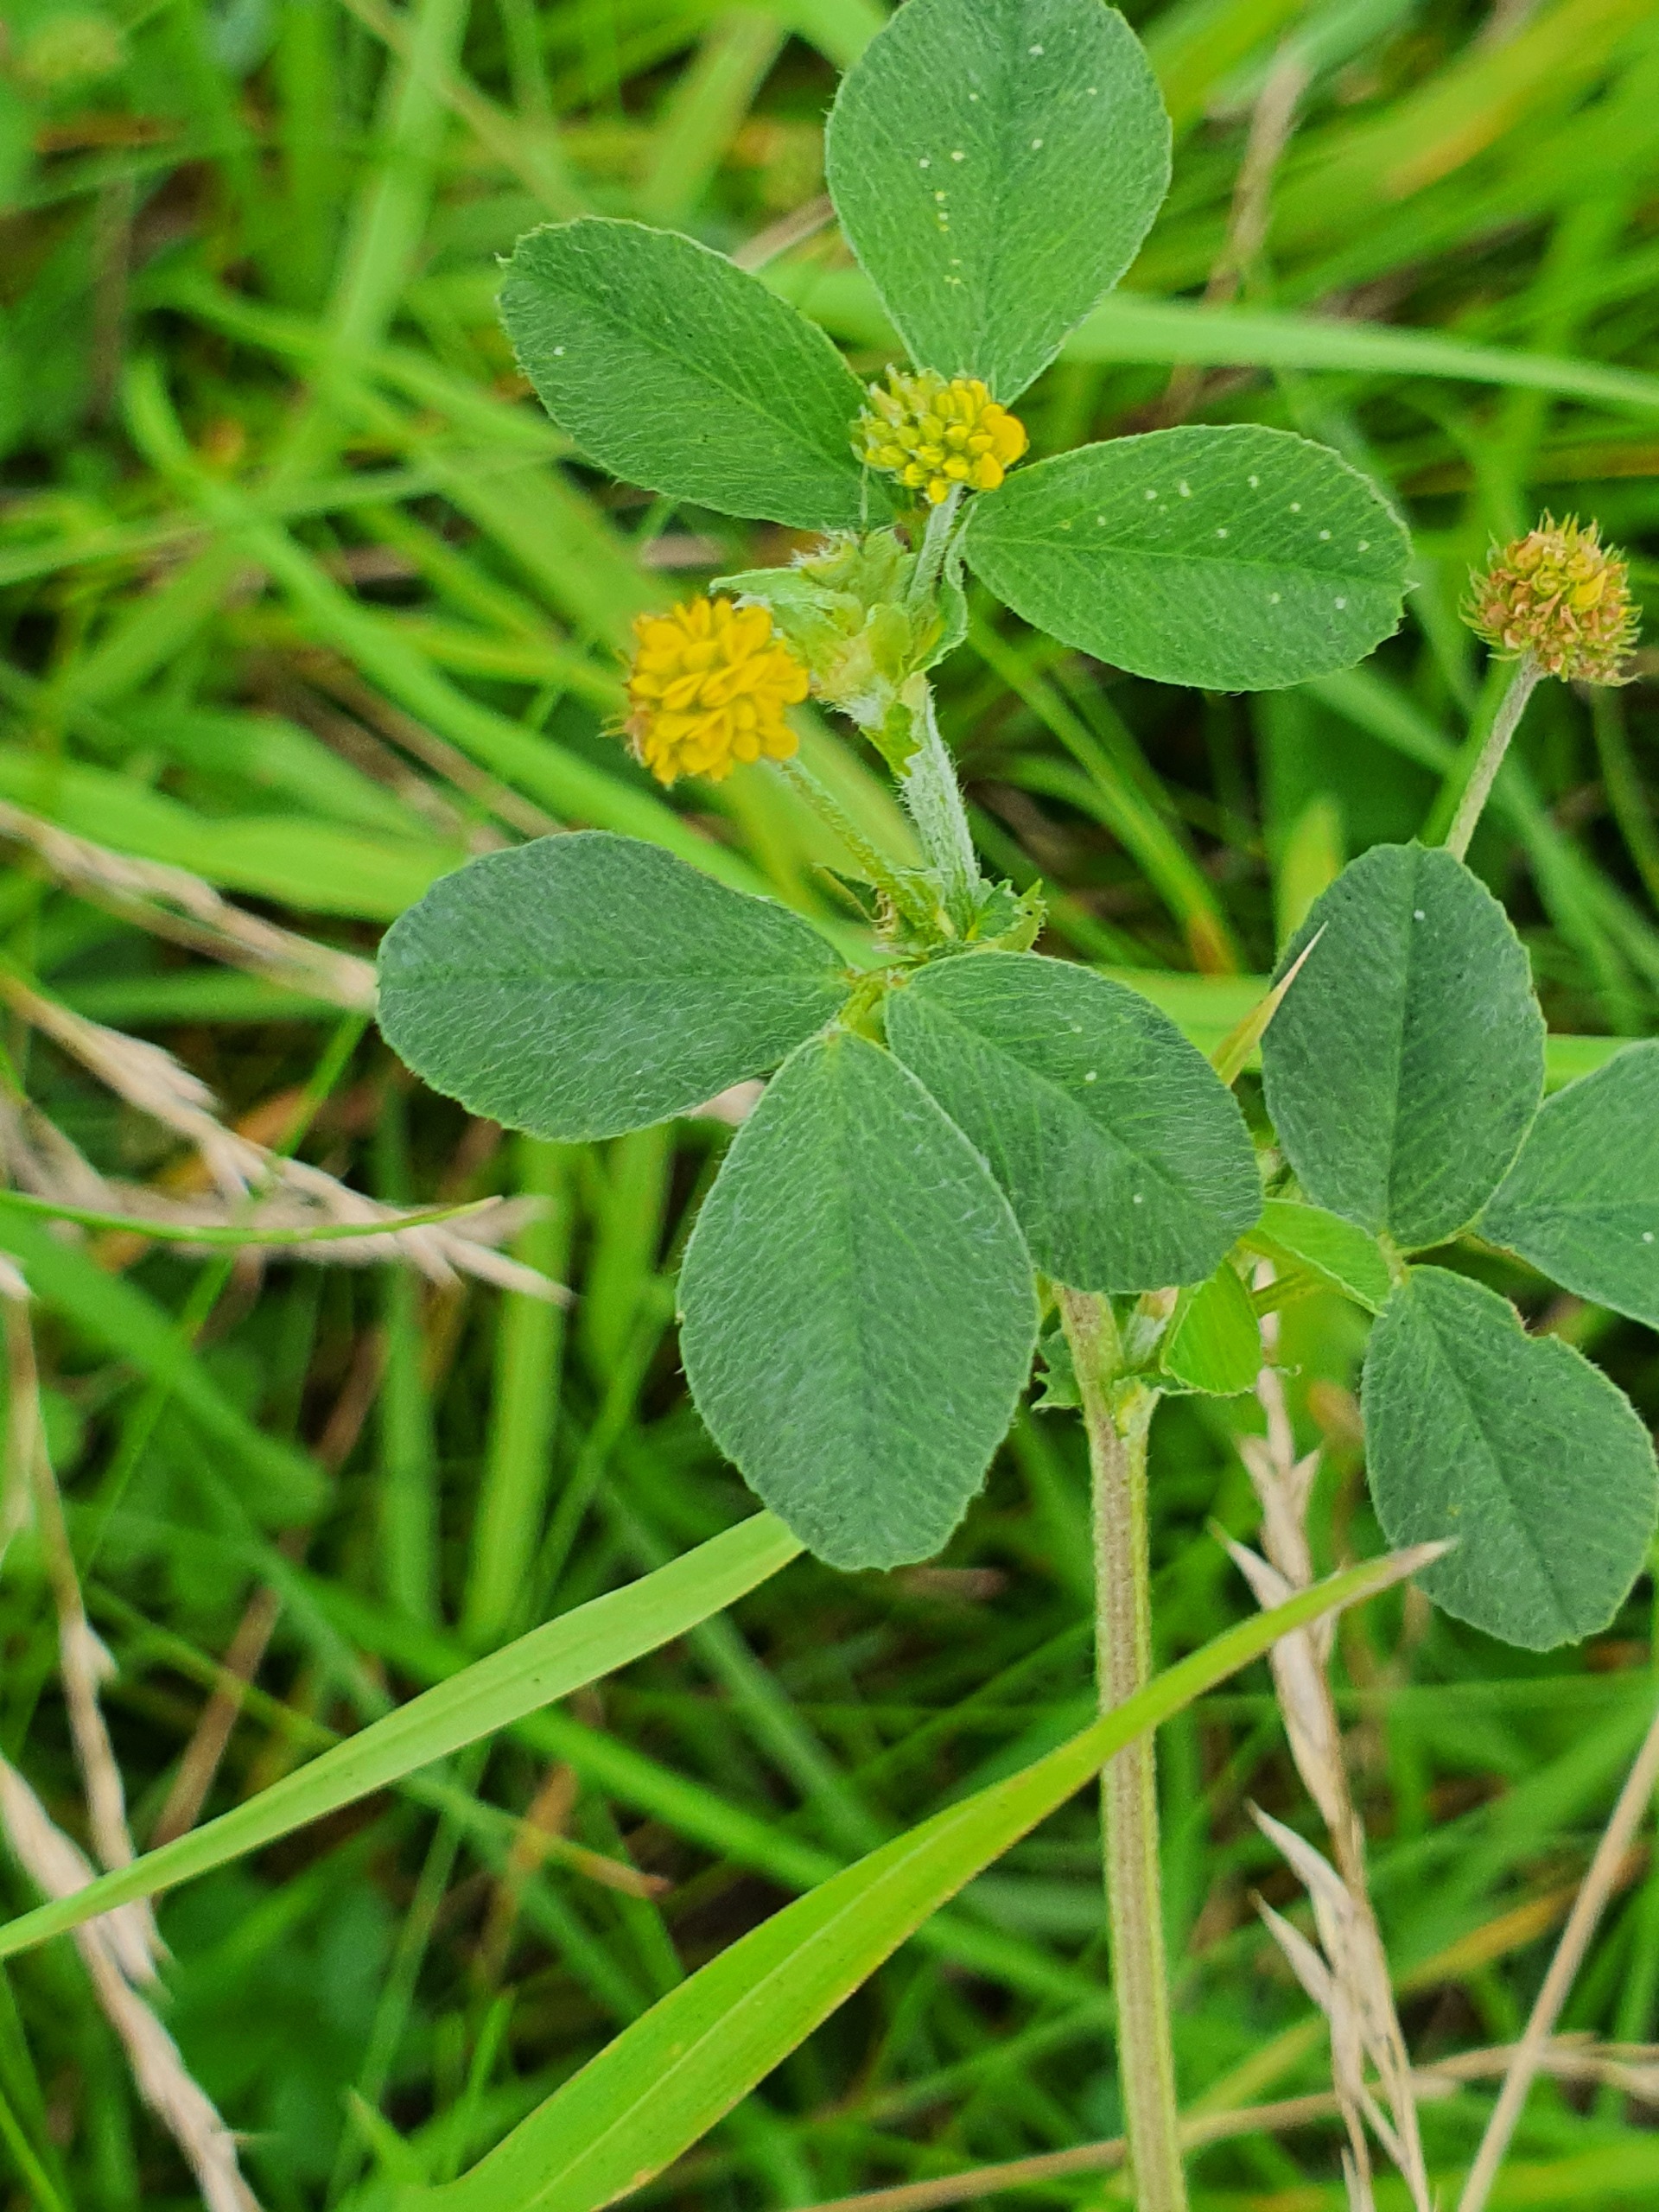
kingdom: Plantae
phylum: Tracheophyta
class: Magnoliopsida
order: Fabales
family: Fabaceae
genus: Medicago
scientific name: Medicago lupulina
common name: Humle-sneglebælg
